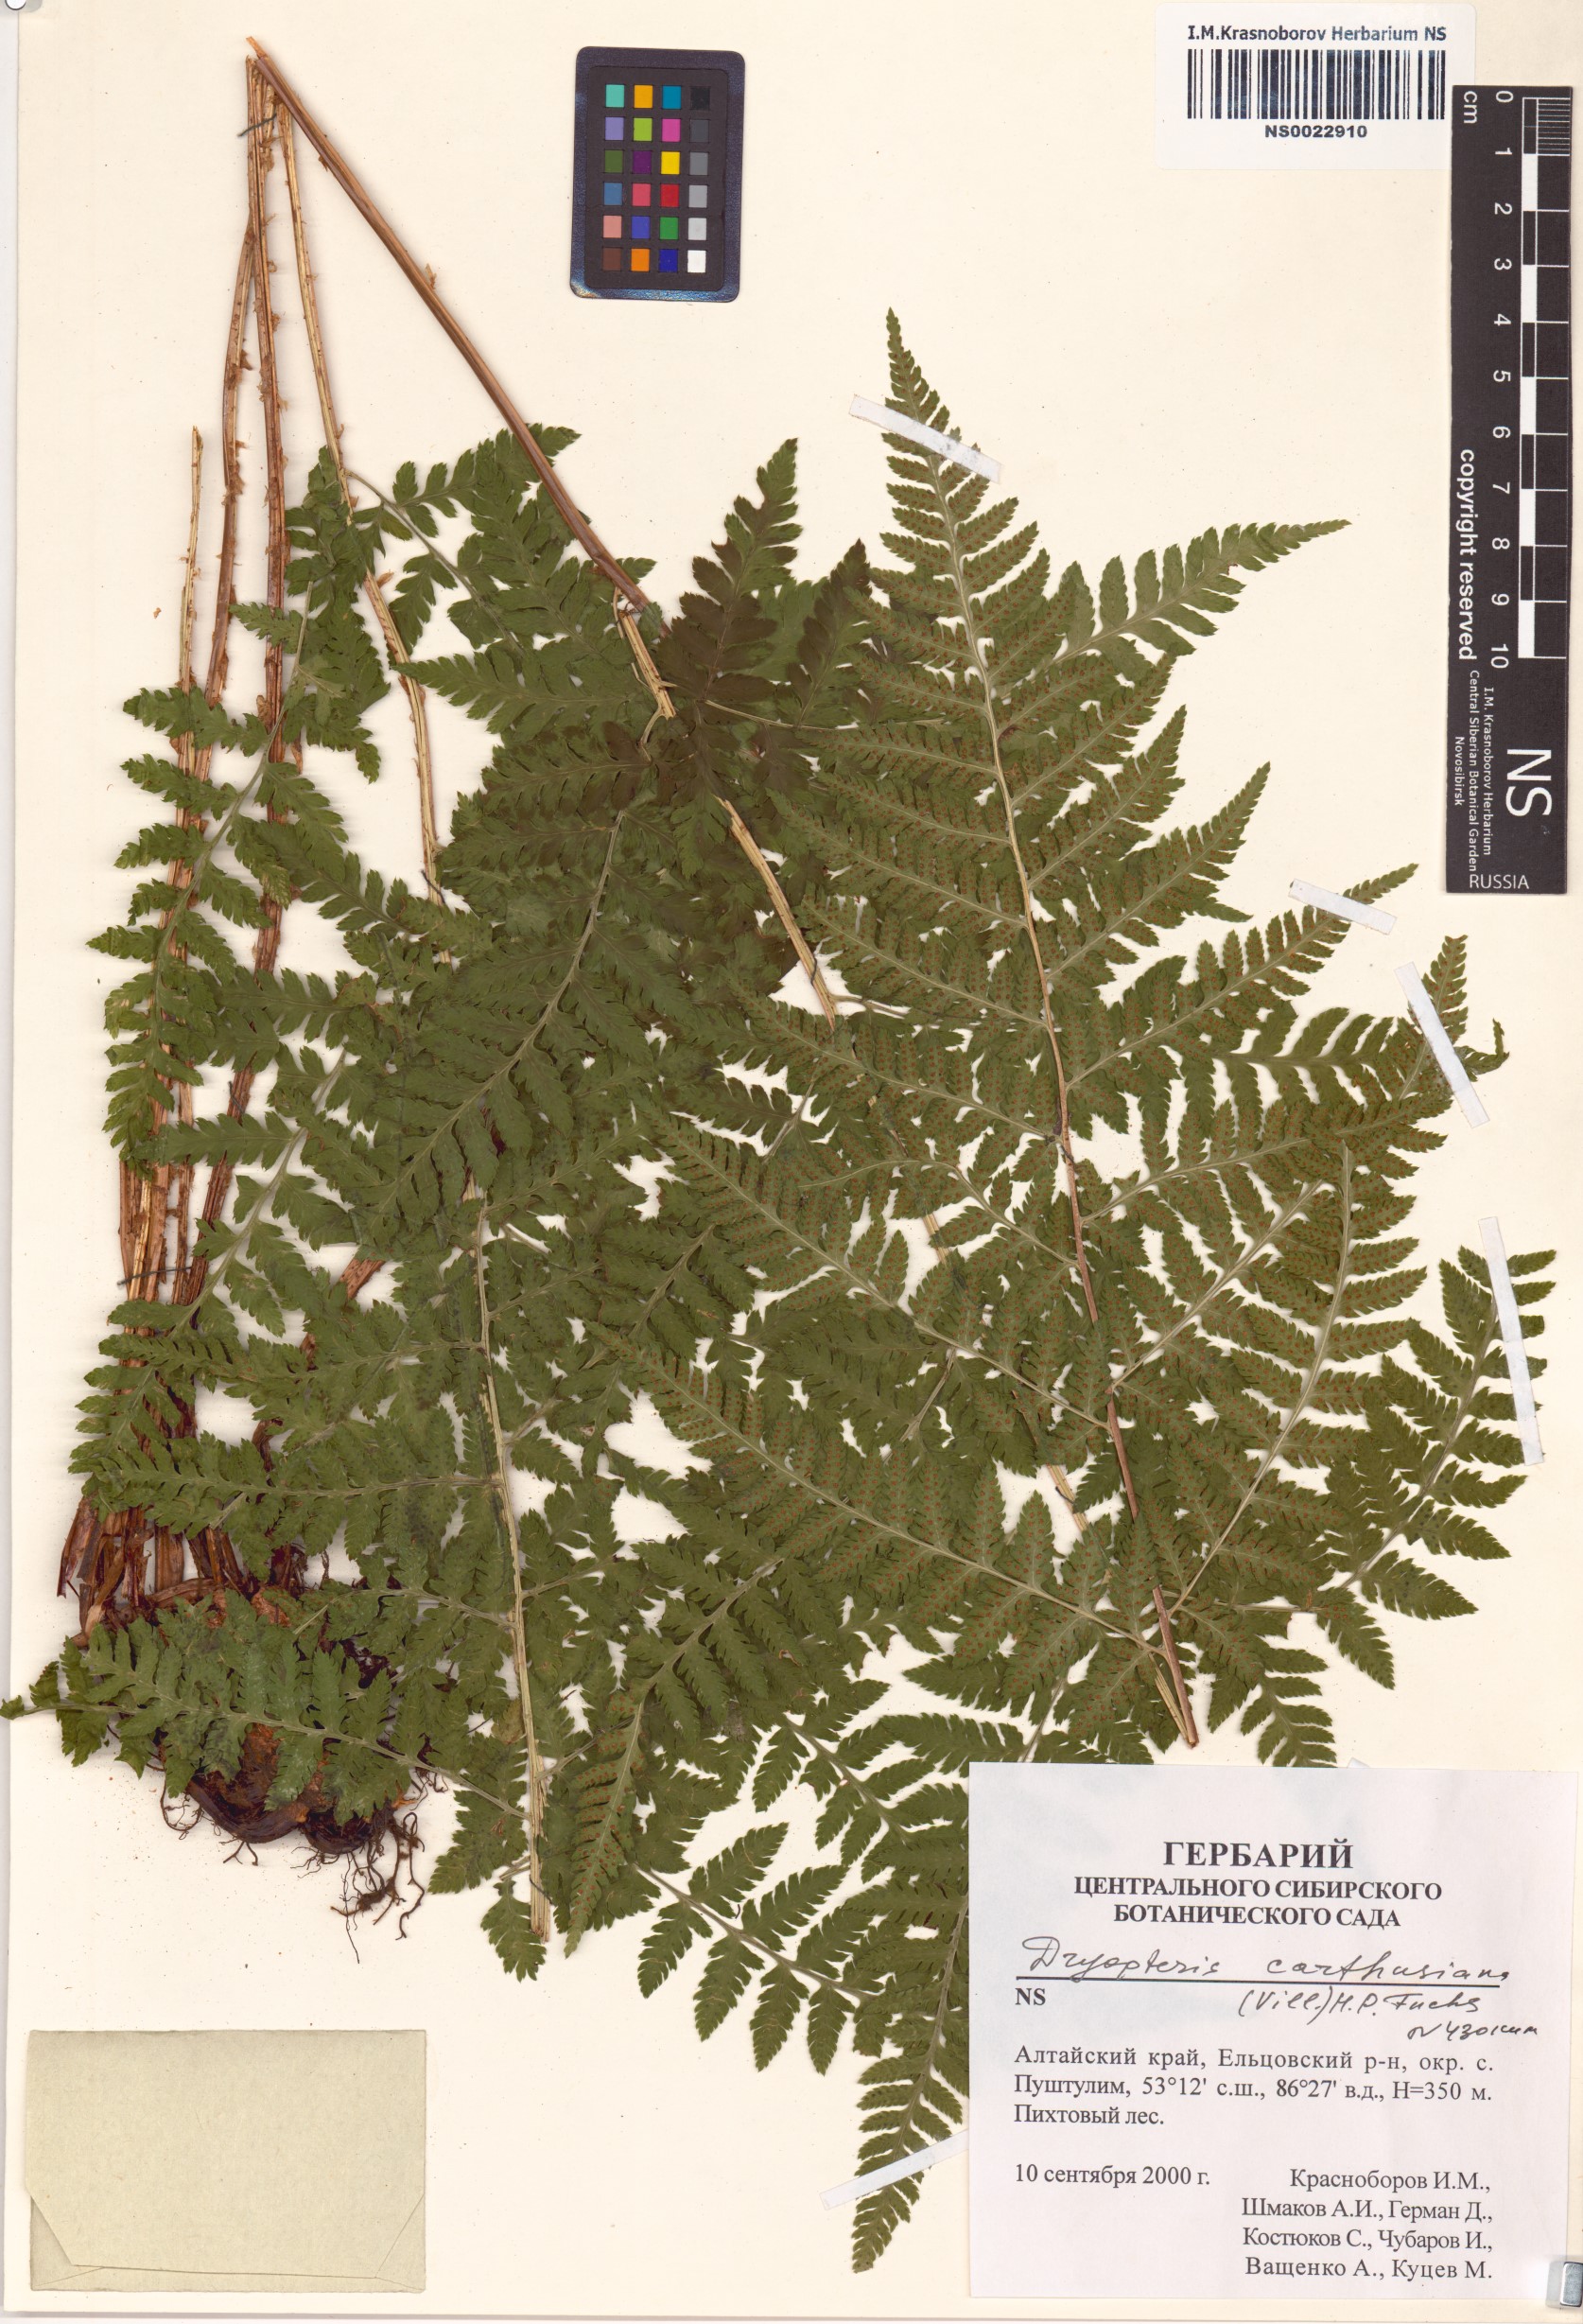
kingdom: Plantae
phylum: Tracheophyta
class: Polypodiopsida
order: Polypodiales
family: Dryopteridaceae
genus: Dryopteris
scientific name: Dryopteris carthusiana
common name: Narrow buckler-fern
